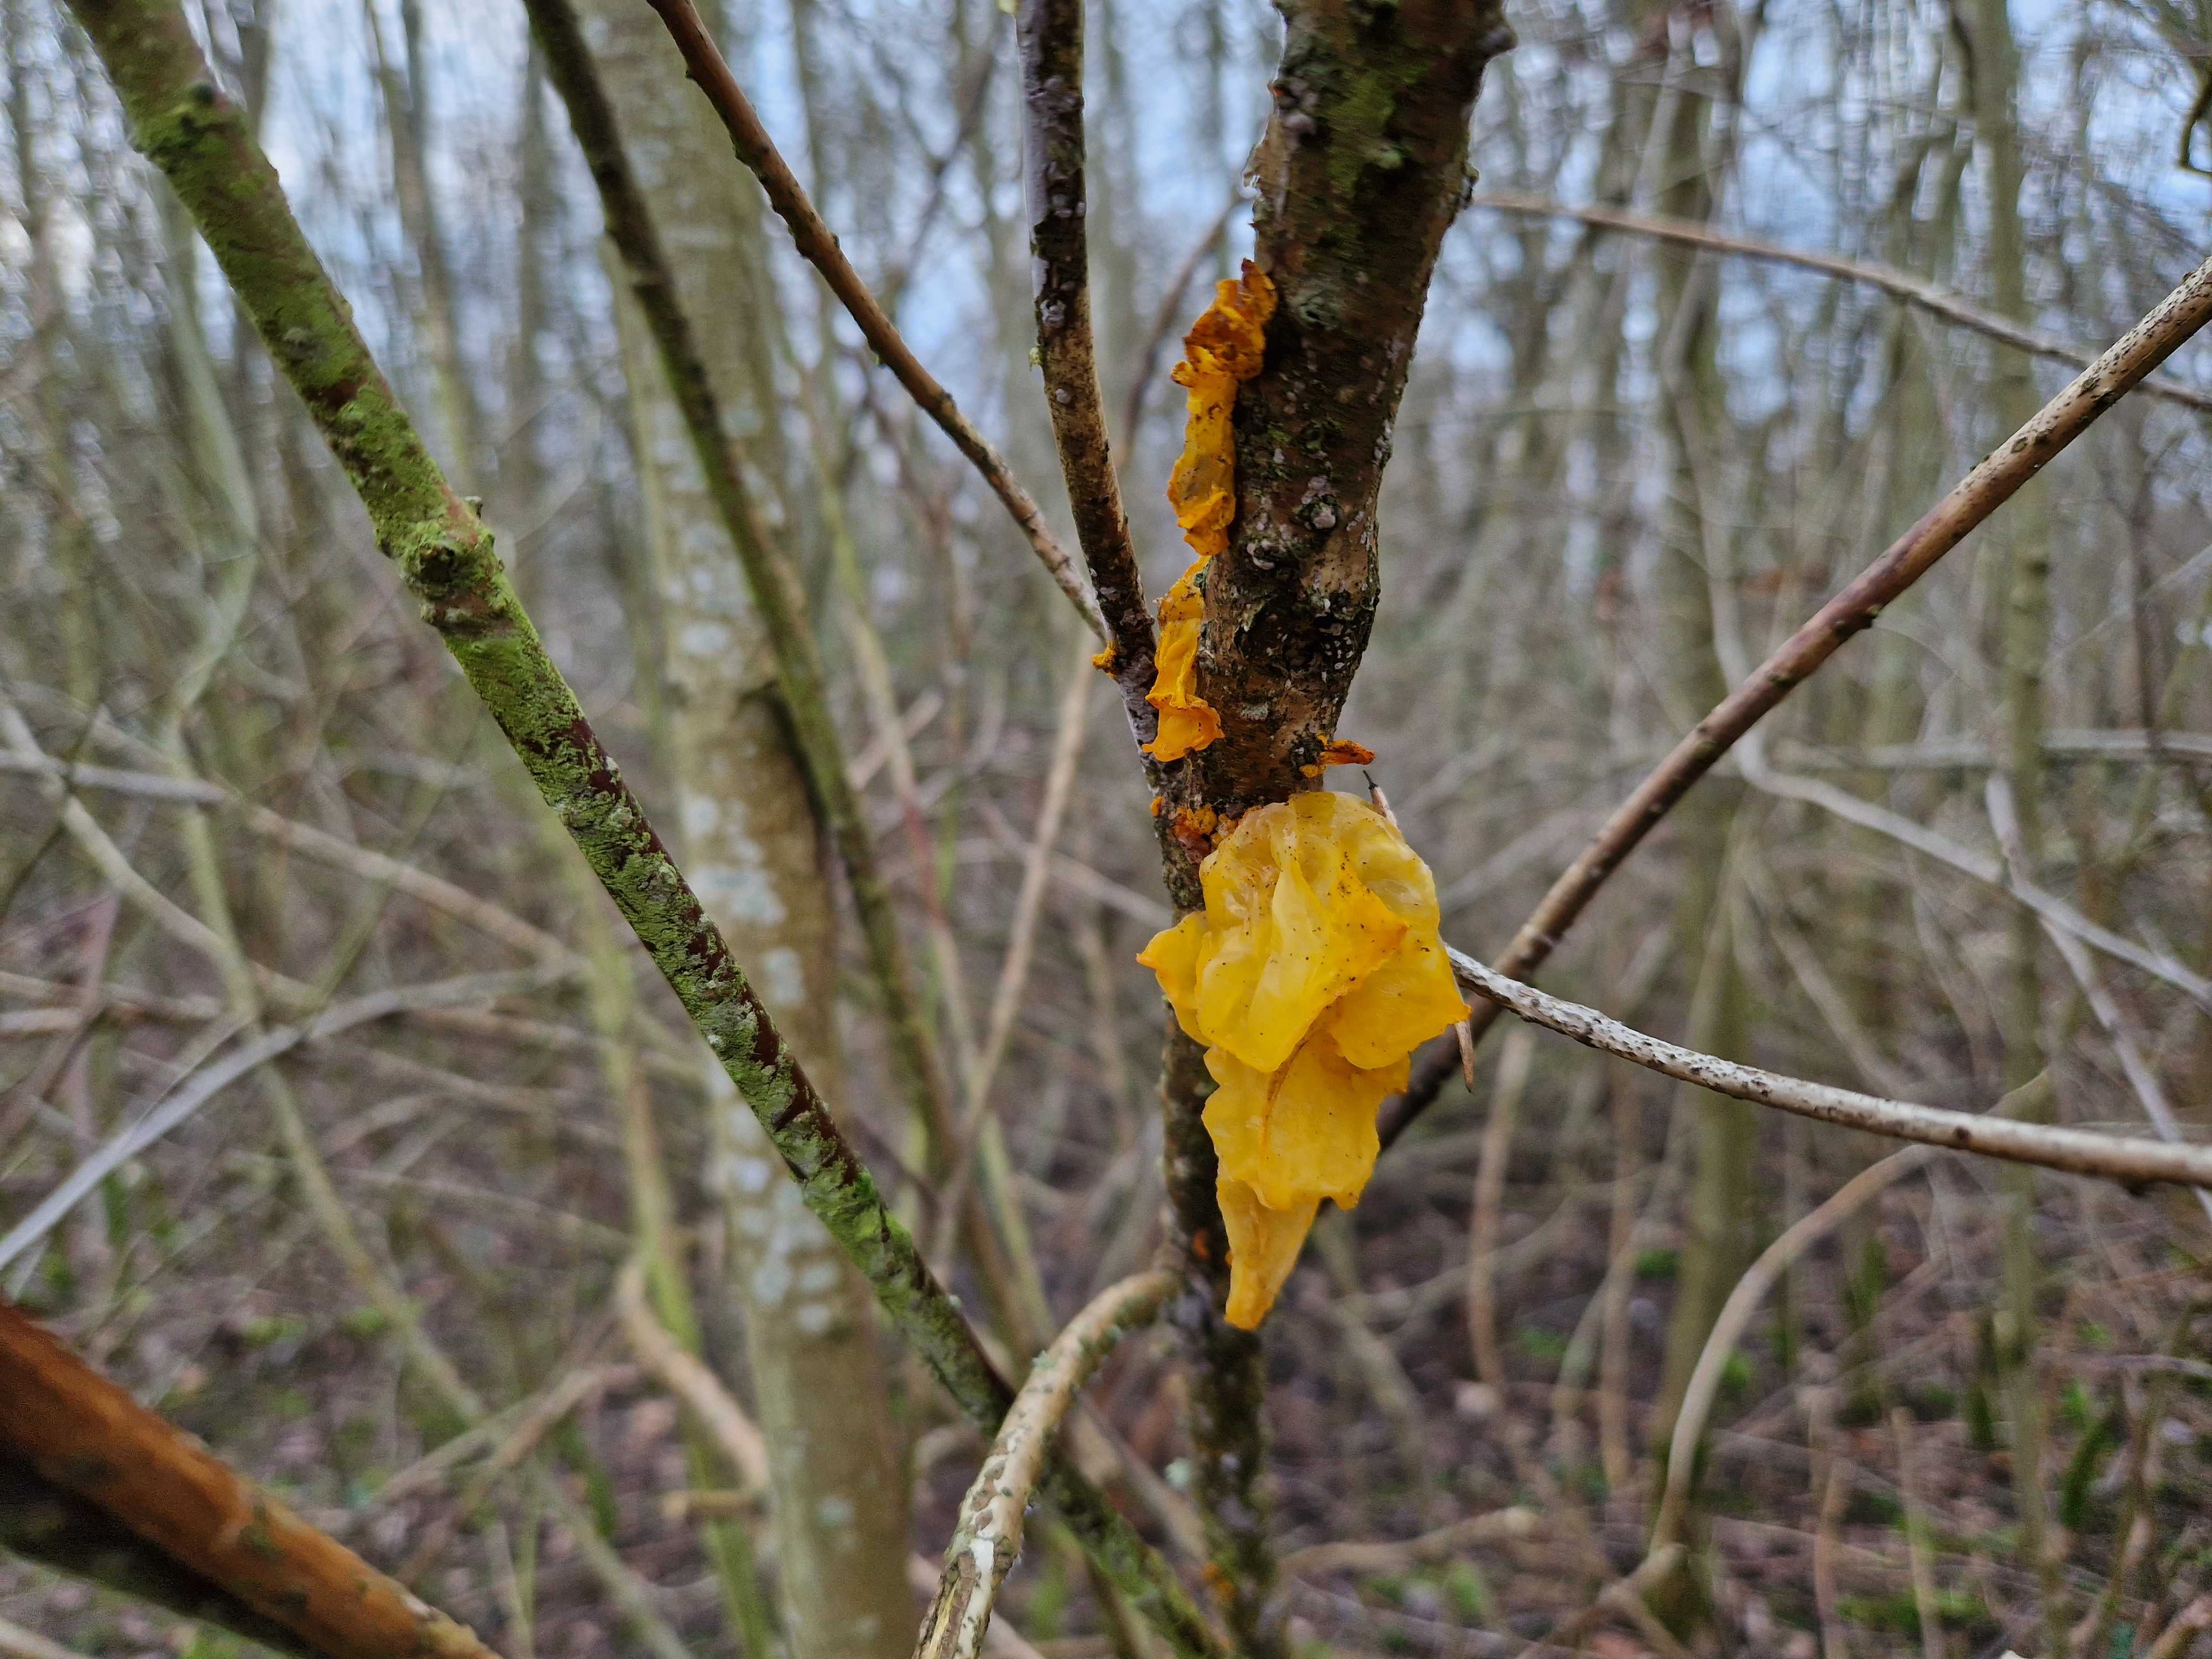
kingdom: Fungi
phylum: Basidiomycota
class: Tremellomycetes
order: Tremellales
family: Tremellaceae
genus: Tremella
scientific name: Tremella mesenterica
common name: gul bævresvamp
